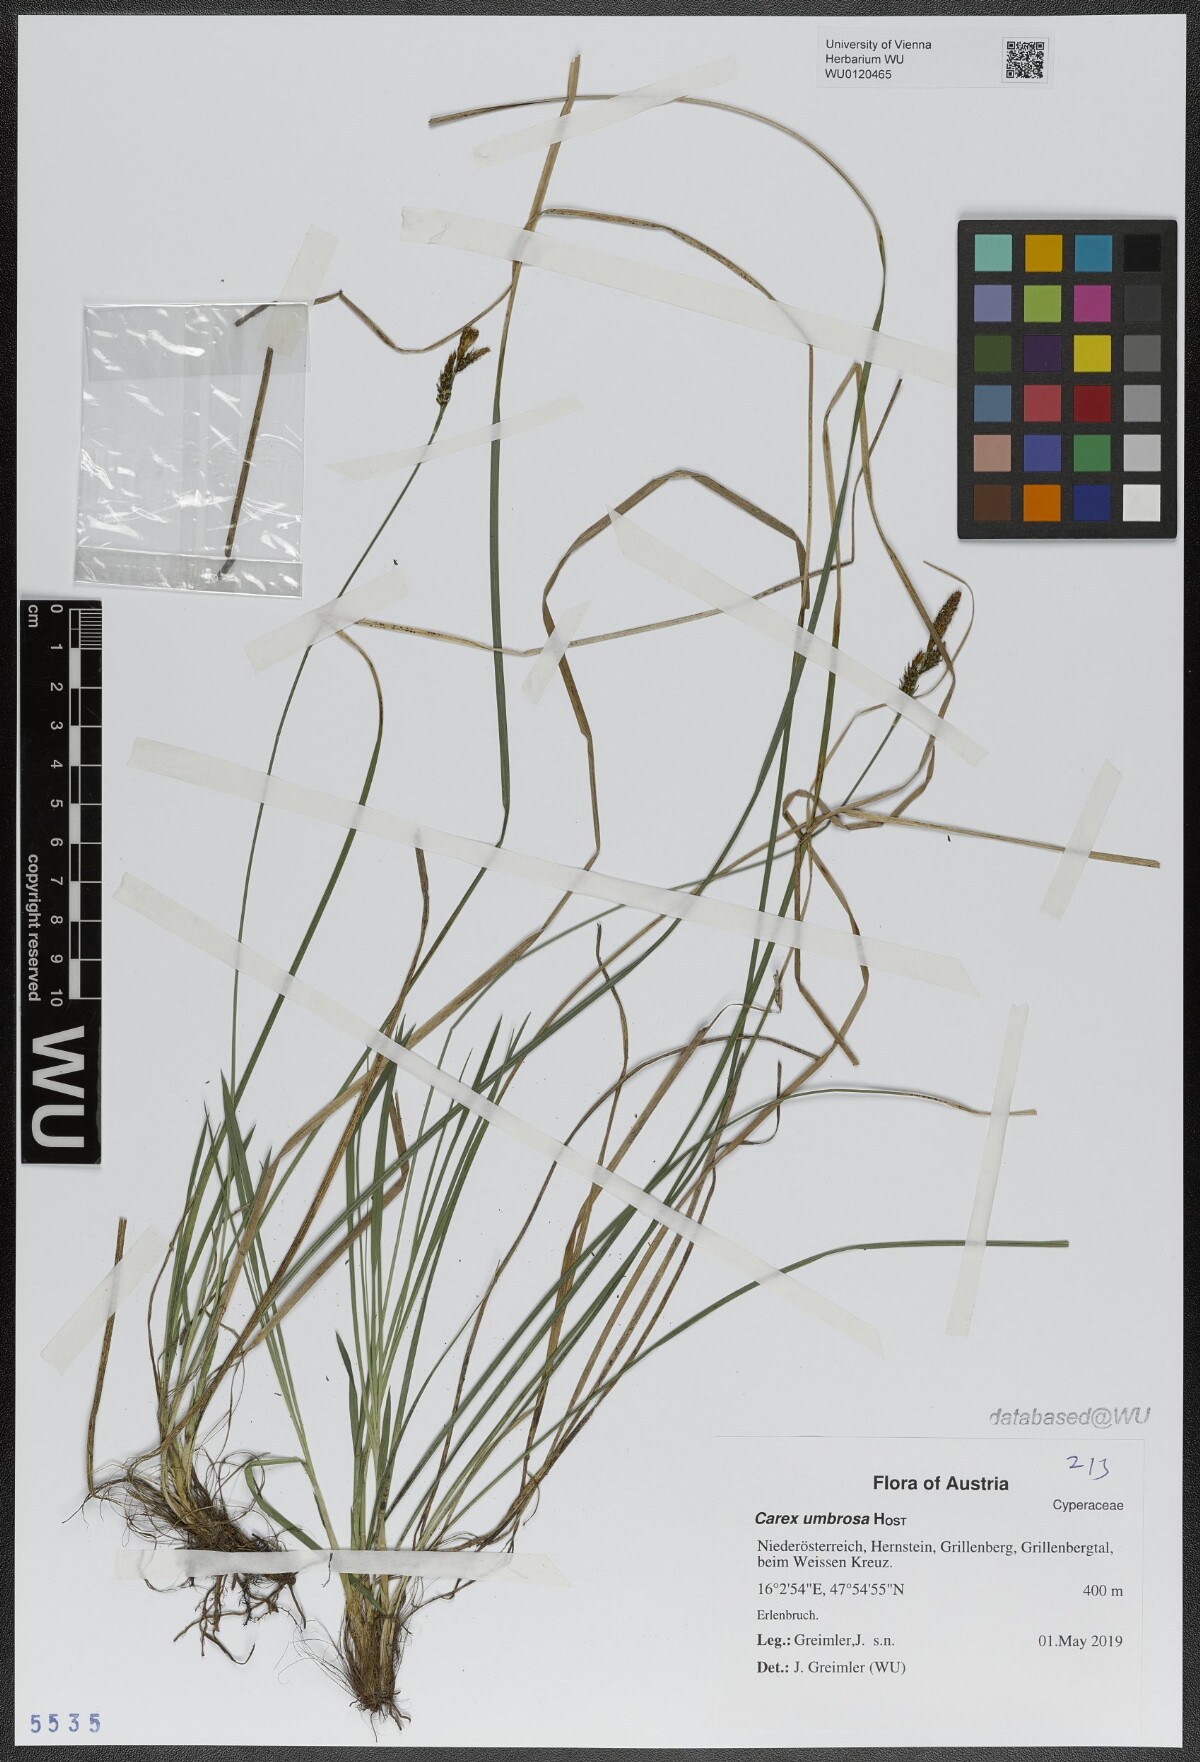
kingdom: Plantae
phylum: Tracheophyta
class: Liliopsida
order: Poales
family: Cyperaceae
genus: Carex
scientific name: Carex umbrosa
